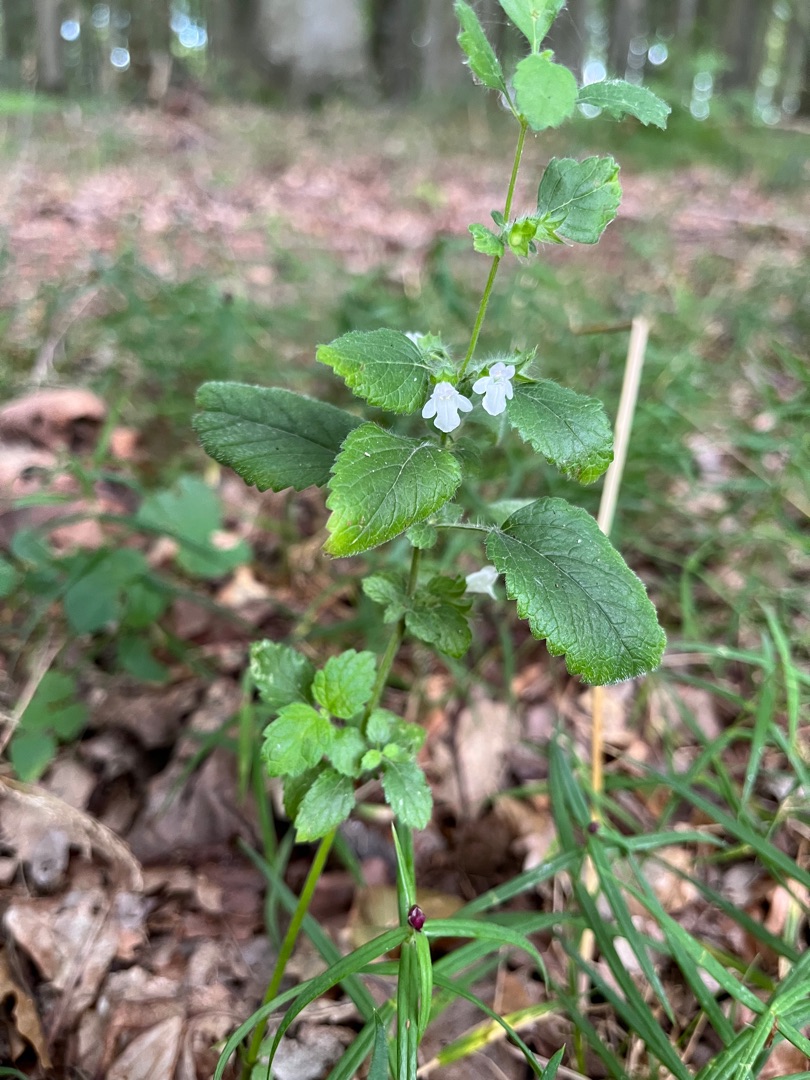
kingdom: Plantae
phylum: Tracheophyta
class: Magnoliopsida
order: Lamiales
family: Lamiaceae
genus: Melissa
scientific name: Melissa officinalis
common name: Citronmelisse
